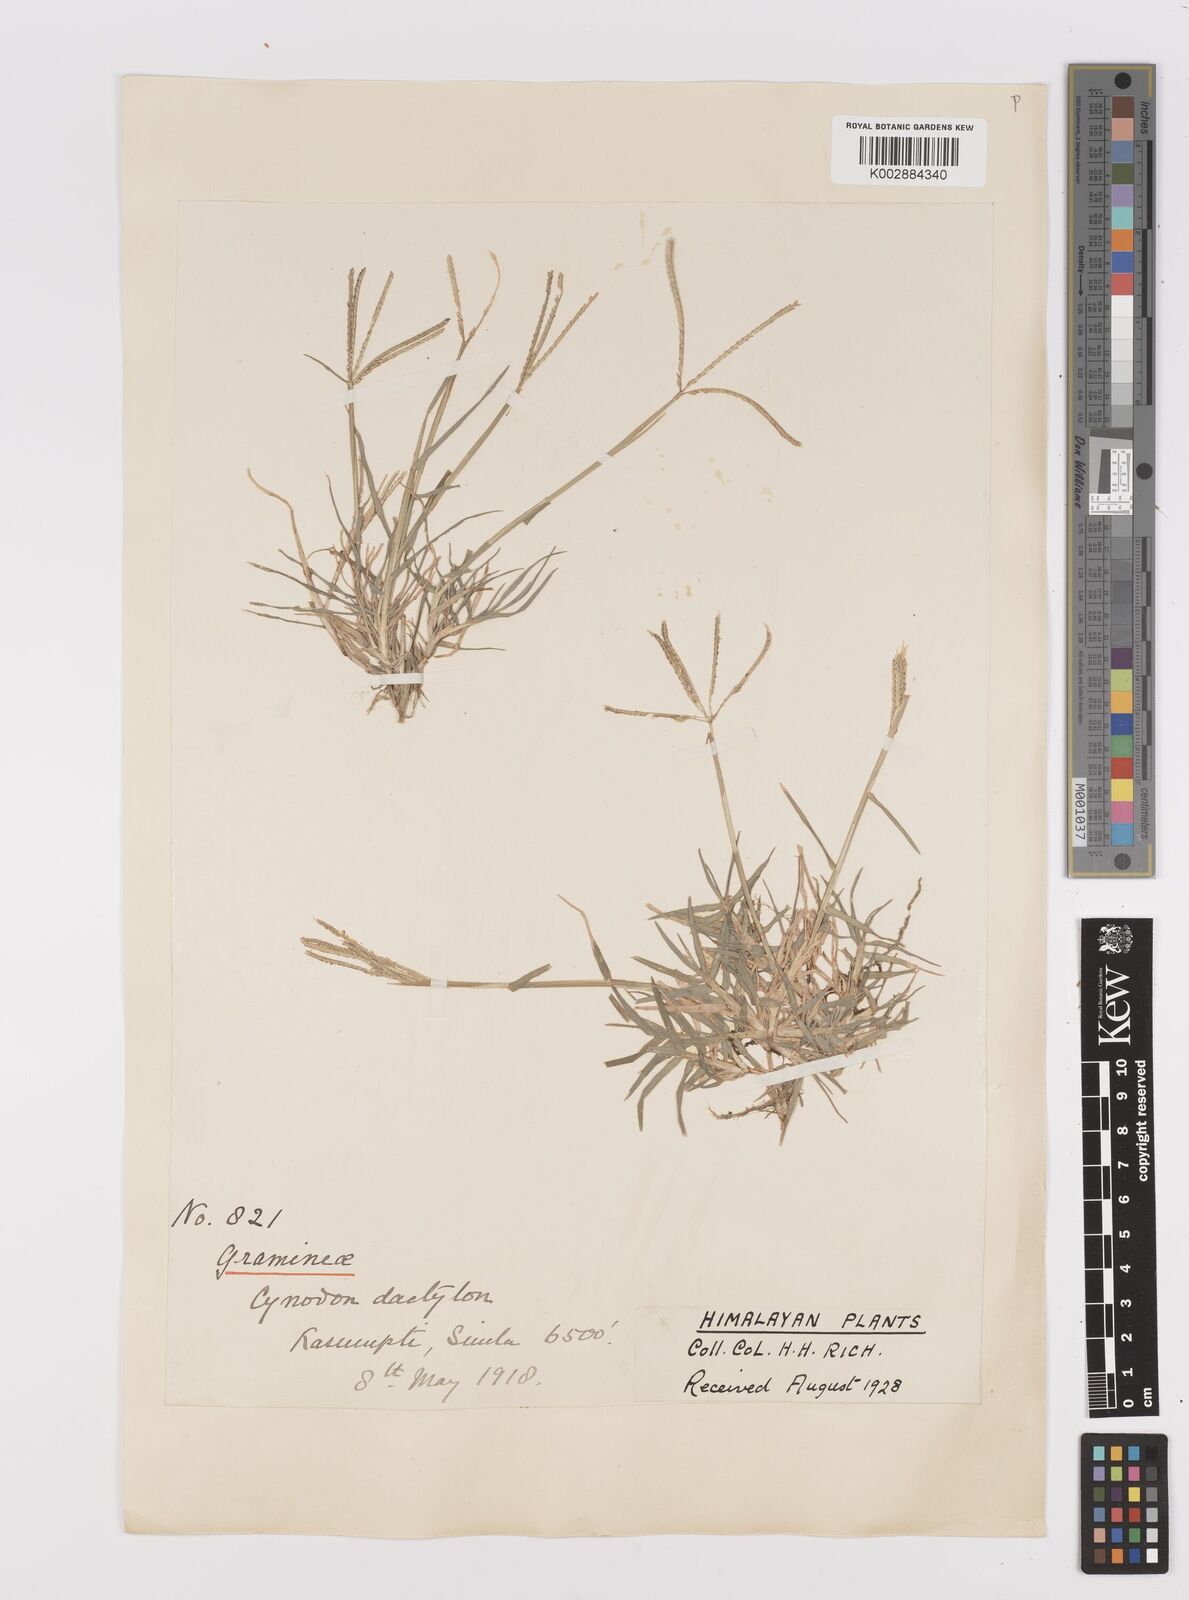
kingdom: Plantae
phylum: Tracheophyta
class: Liliopsida
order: Poales
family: Poaceae
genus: Cynodon
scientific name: Cynodon dactylon
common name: Bermuda grass
